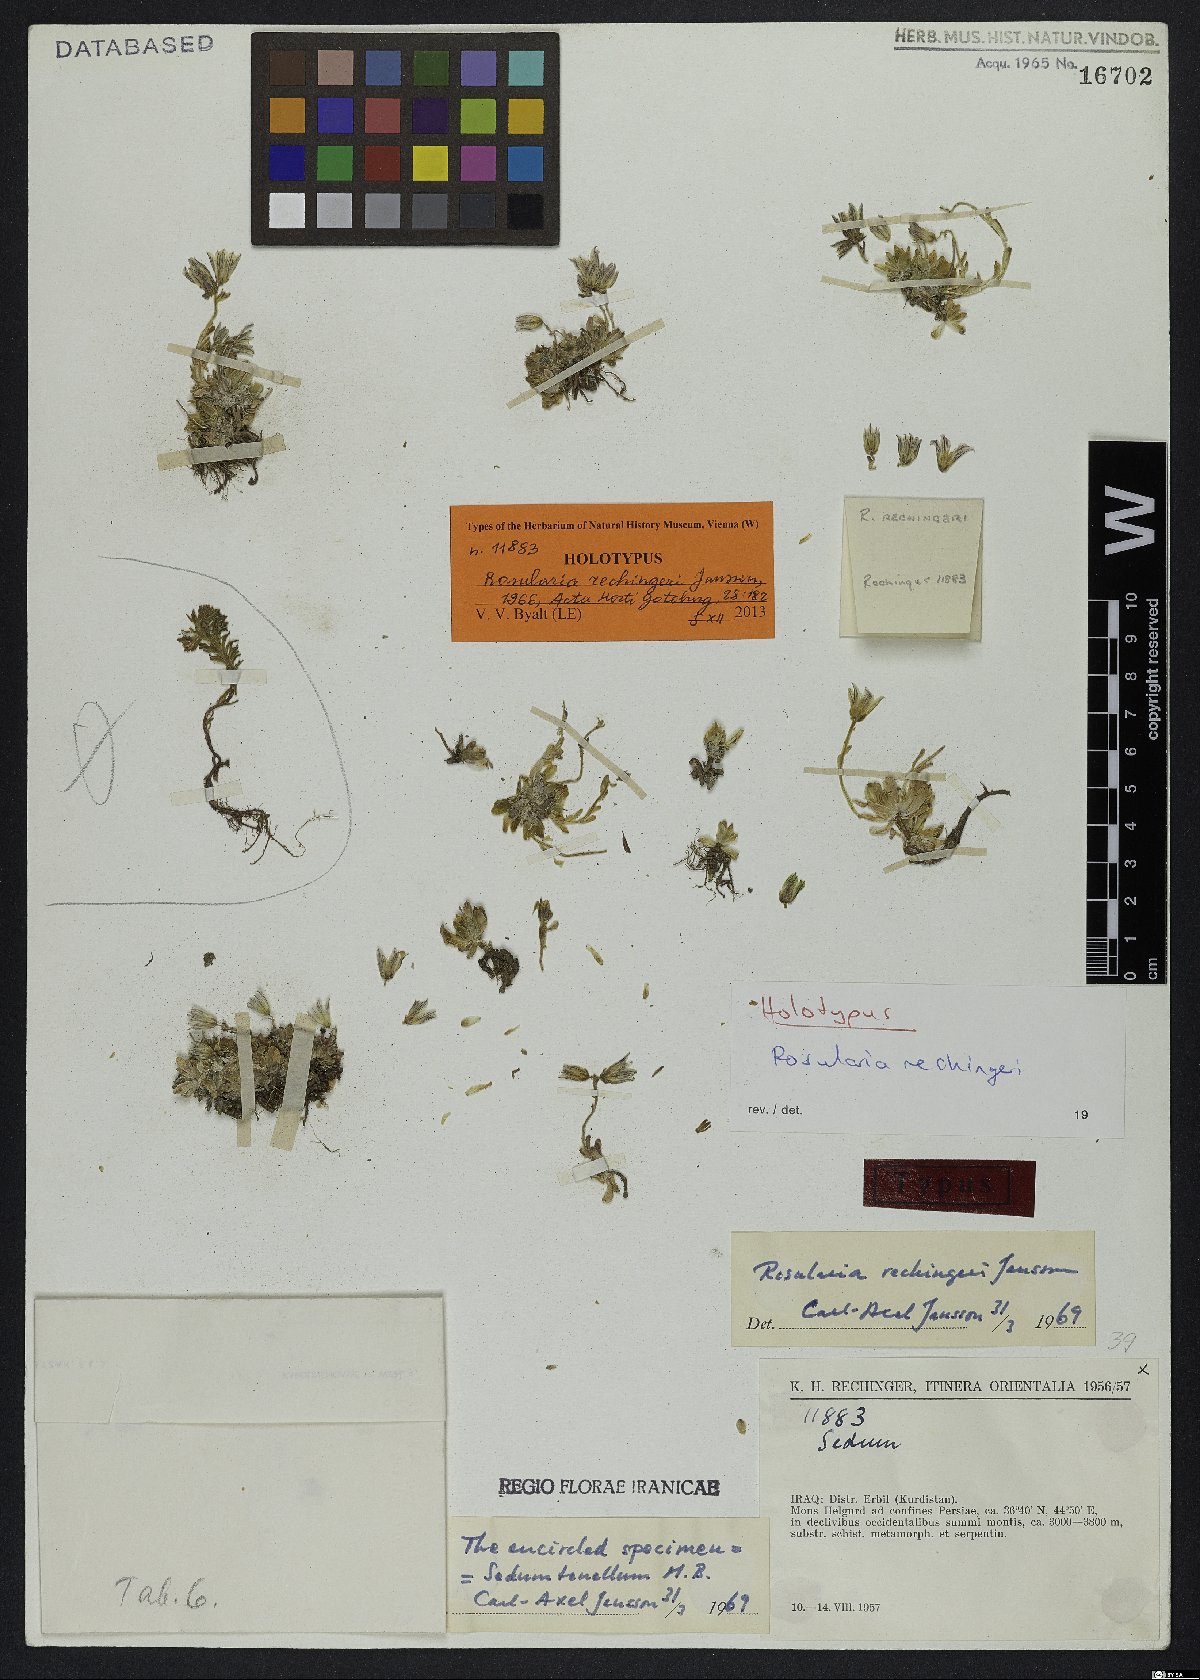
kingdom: Plantae
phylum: Tracheophyta
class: Magnoliopsida
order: Saxifragales
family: Crassulaceae
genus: Prometheum
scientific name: Prometheum rechingeri
